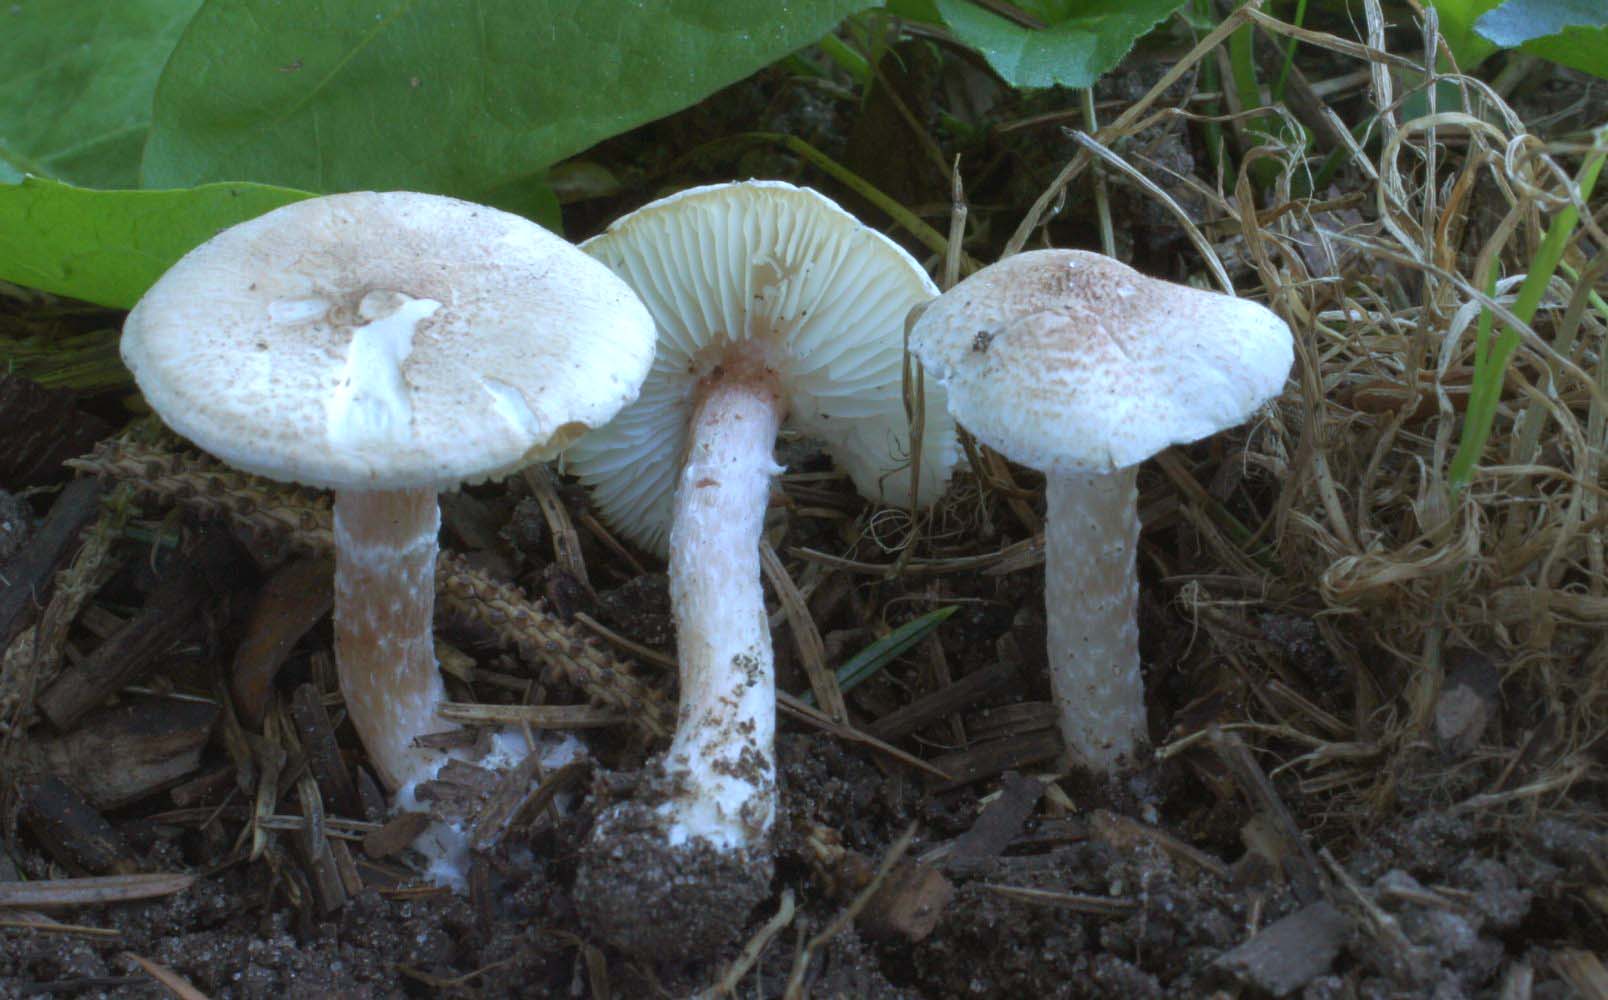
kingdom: Fungi
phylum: Basidiomycota
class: Agaricomycetes
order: Agaricales
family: Agaricaceae
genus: Lepiota
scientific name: Lepiota subincarnata
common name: kødfarvet parasolhat
